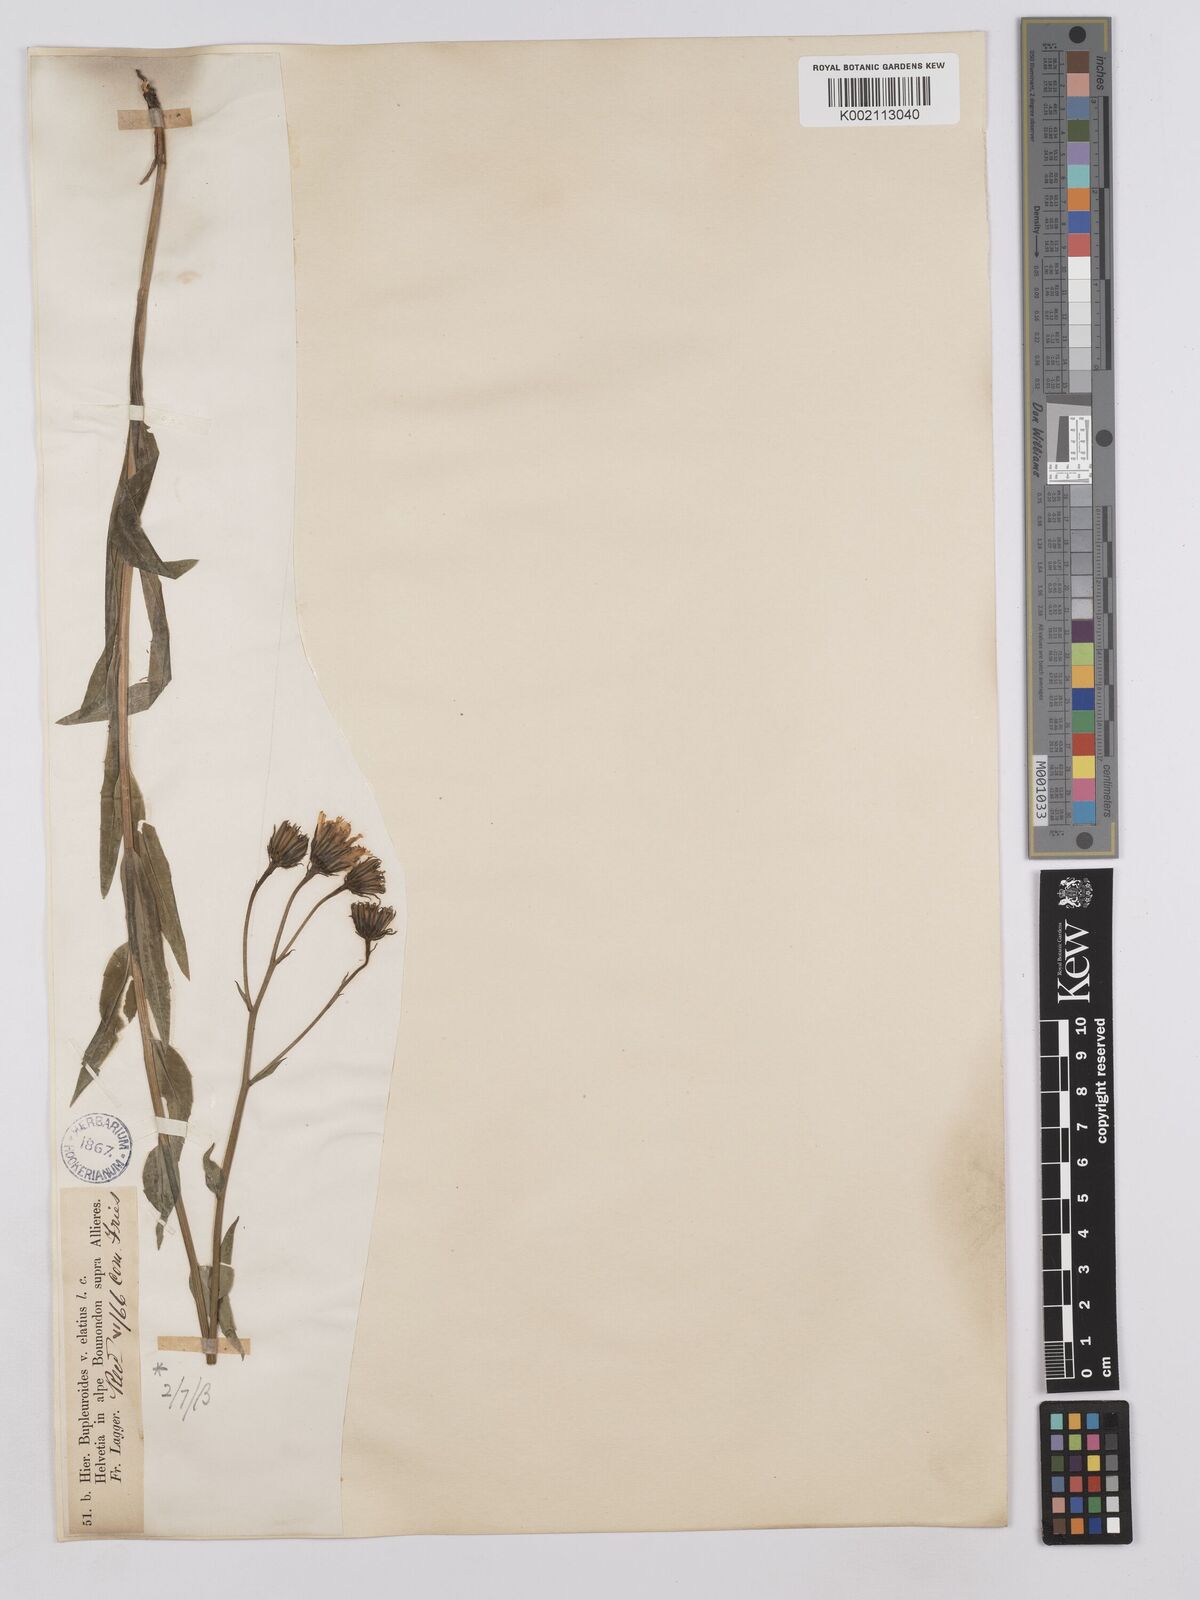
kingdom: Plantae
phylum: Tracheophyta
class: Magnoliopsida
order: Asterales
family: Asteraceae
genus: Hieracium
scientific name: Hieracium bupleuroides
